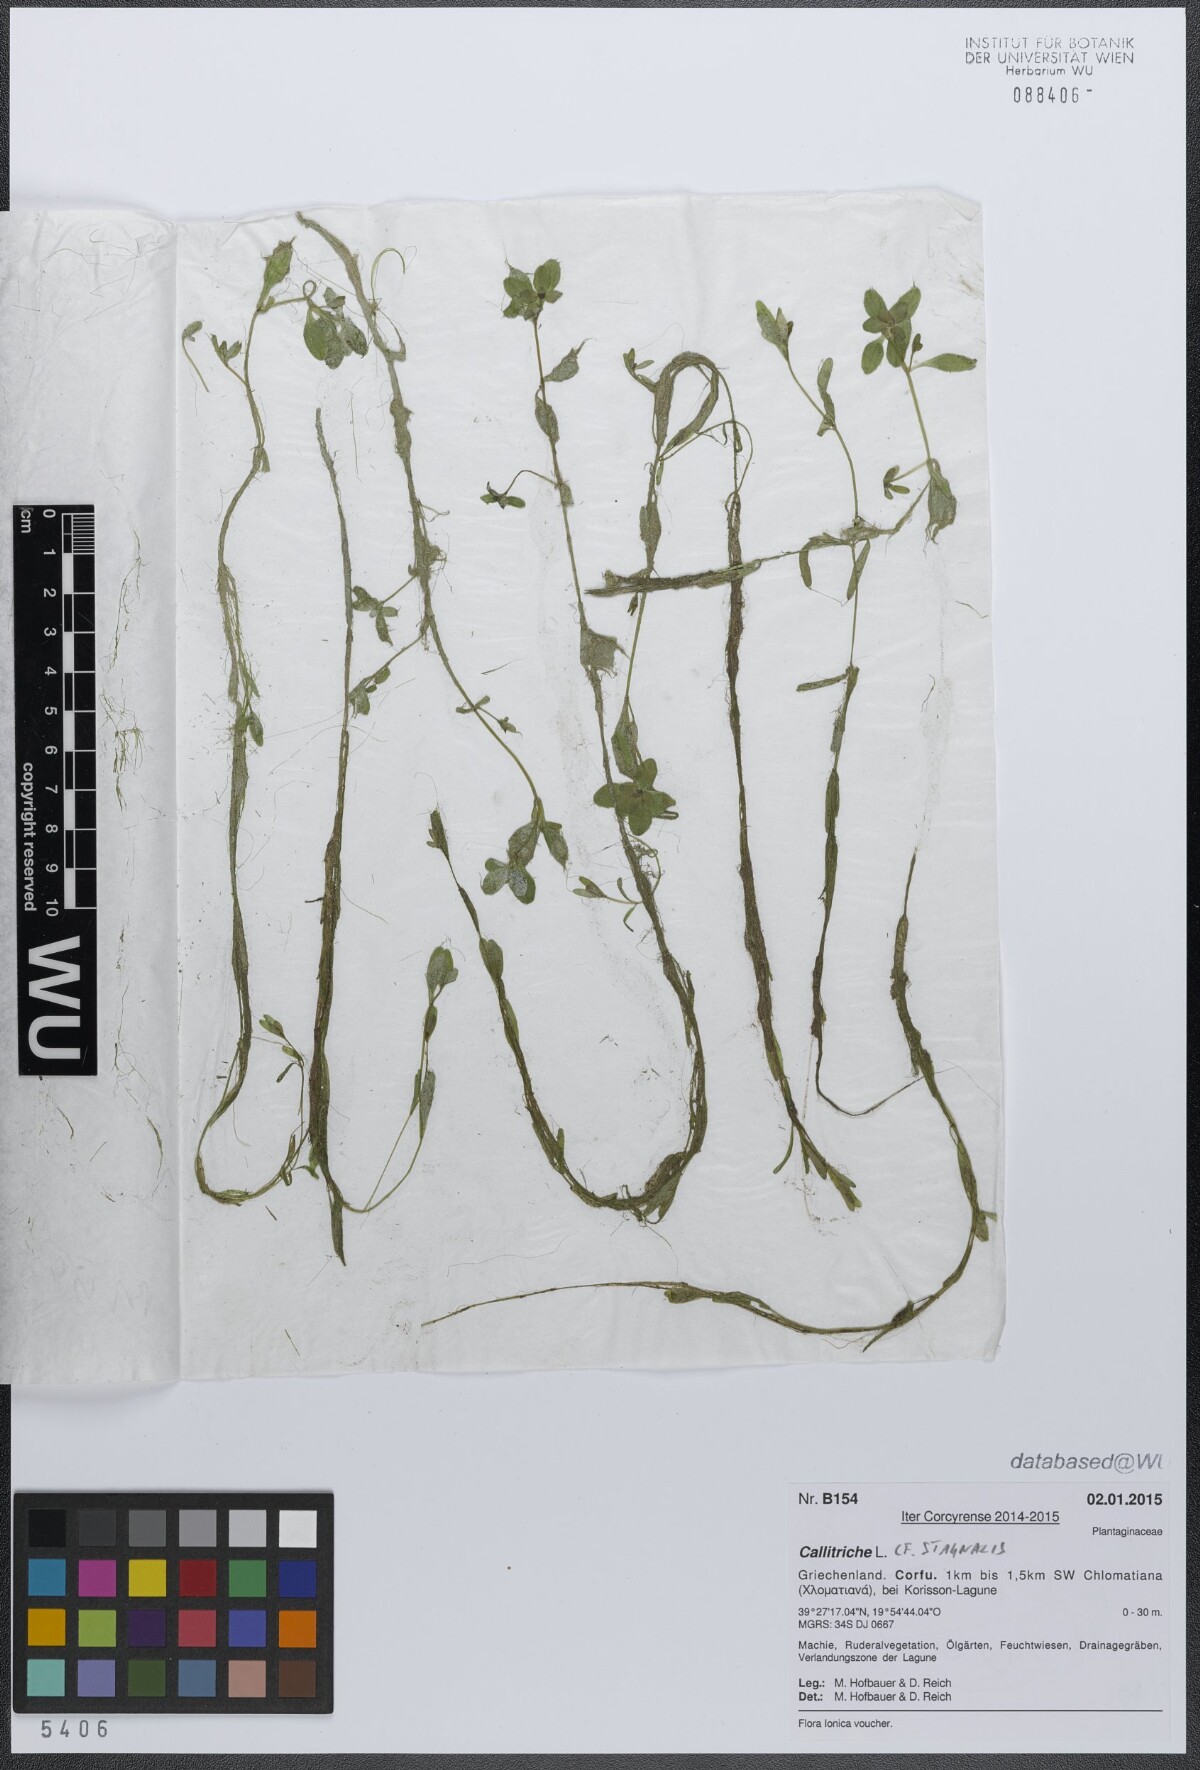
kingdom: Plantae
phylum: Tracheophyta
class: Magnoliopsida
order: Lamiales
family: Plantaginaceae
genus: Callitriche
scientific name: Callitriche stagnalis
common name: Common water-starwort
